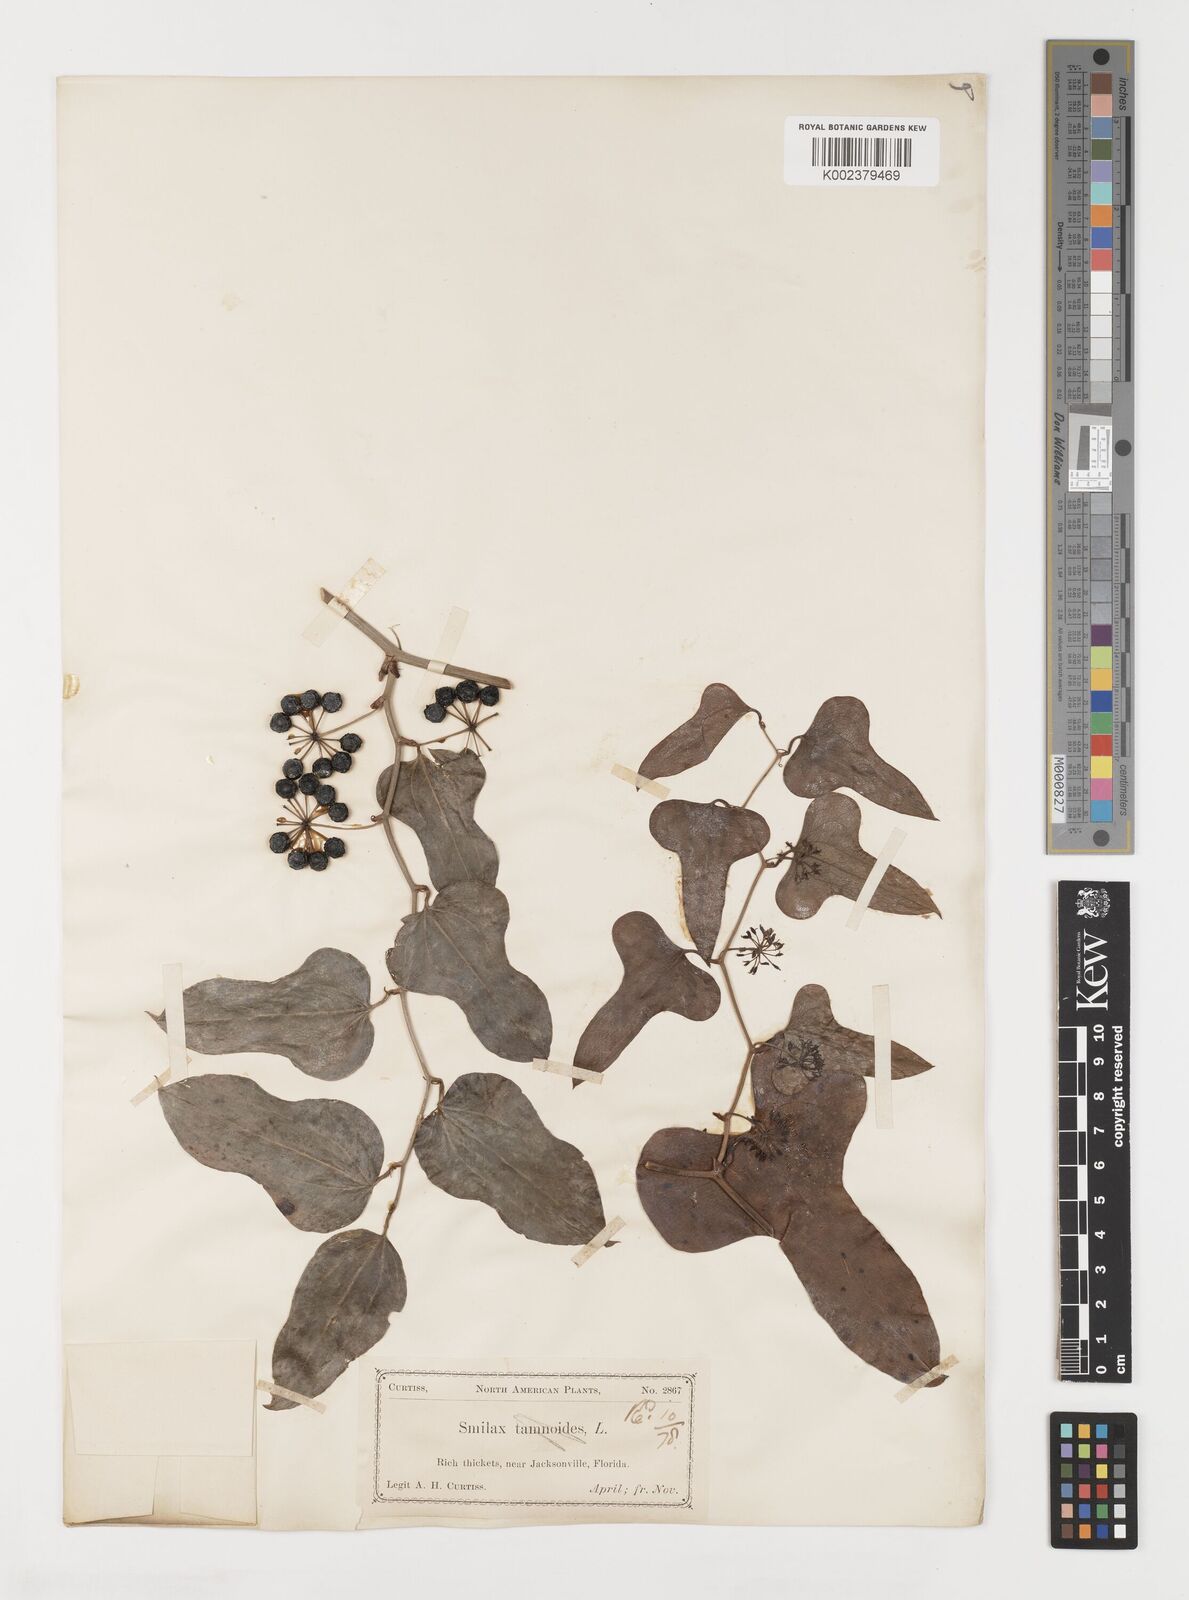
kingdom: Plantae
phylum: Tracheophyta
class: Liliopsida
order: Liliales
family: Smilacaceae
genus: Smilax
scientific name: Smilax
